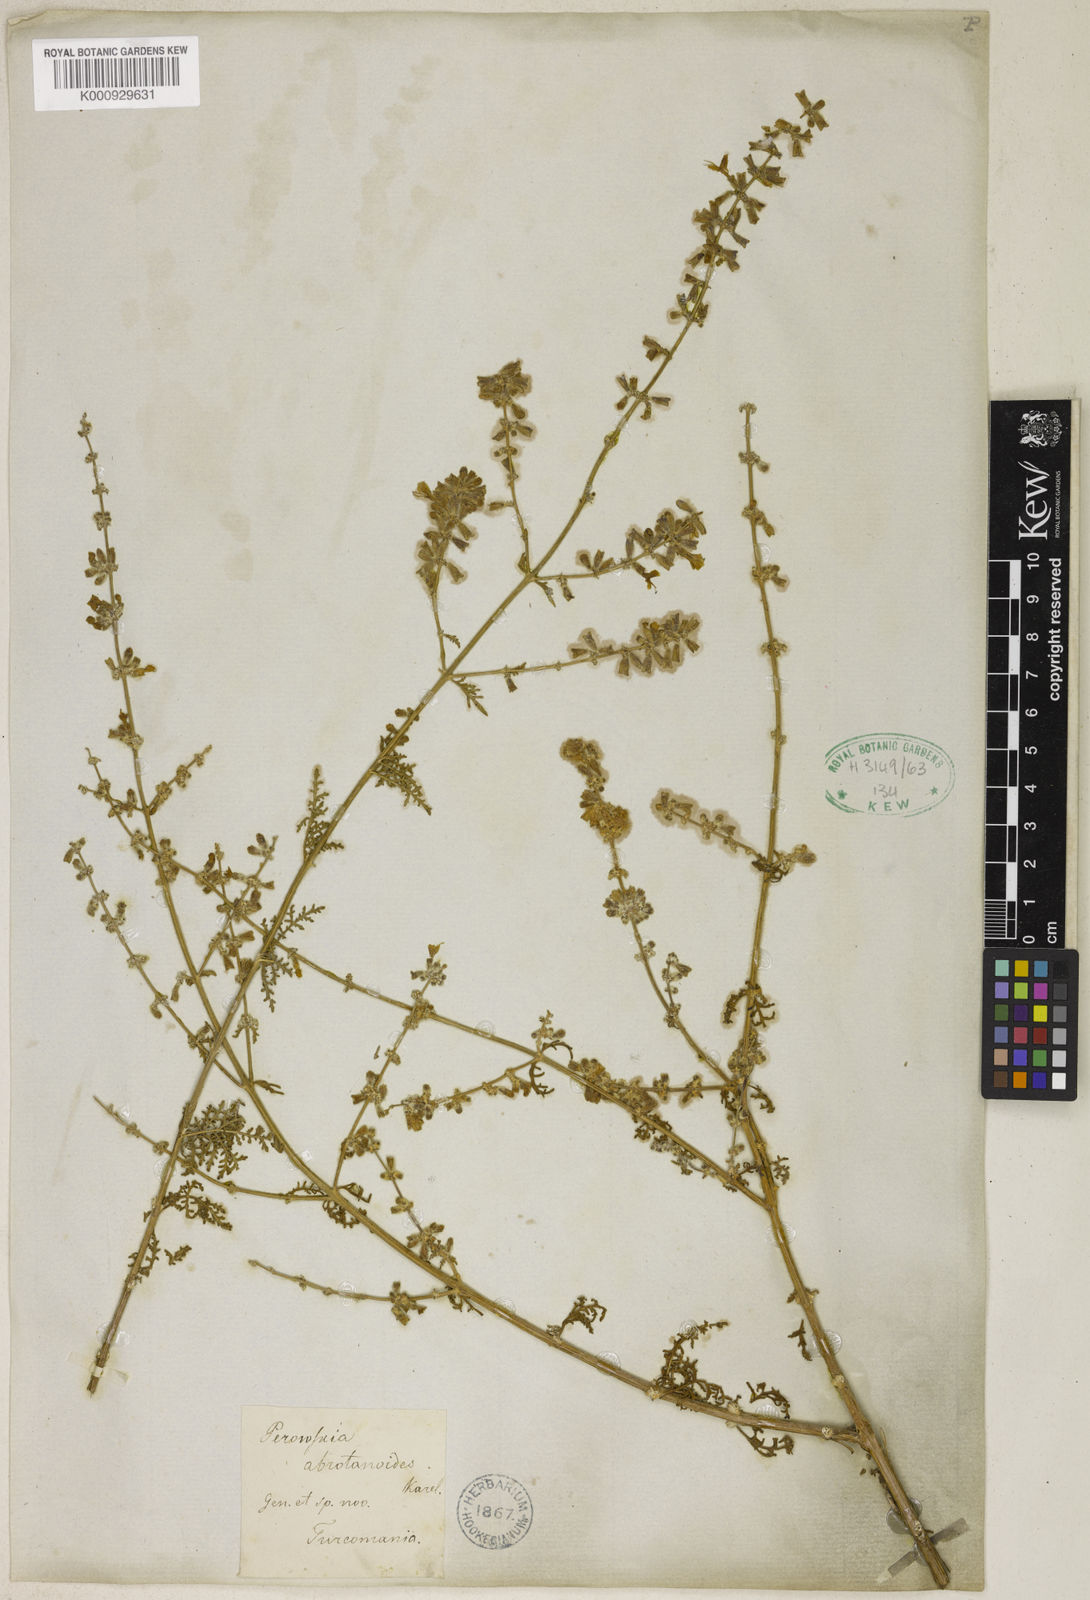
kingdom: Plantae
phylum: Tracheophyta
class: Magnoliopsida
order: Lamiales
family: Lamiaceae
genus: Salvia
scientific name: Salvia abrotanoides
